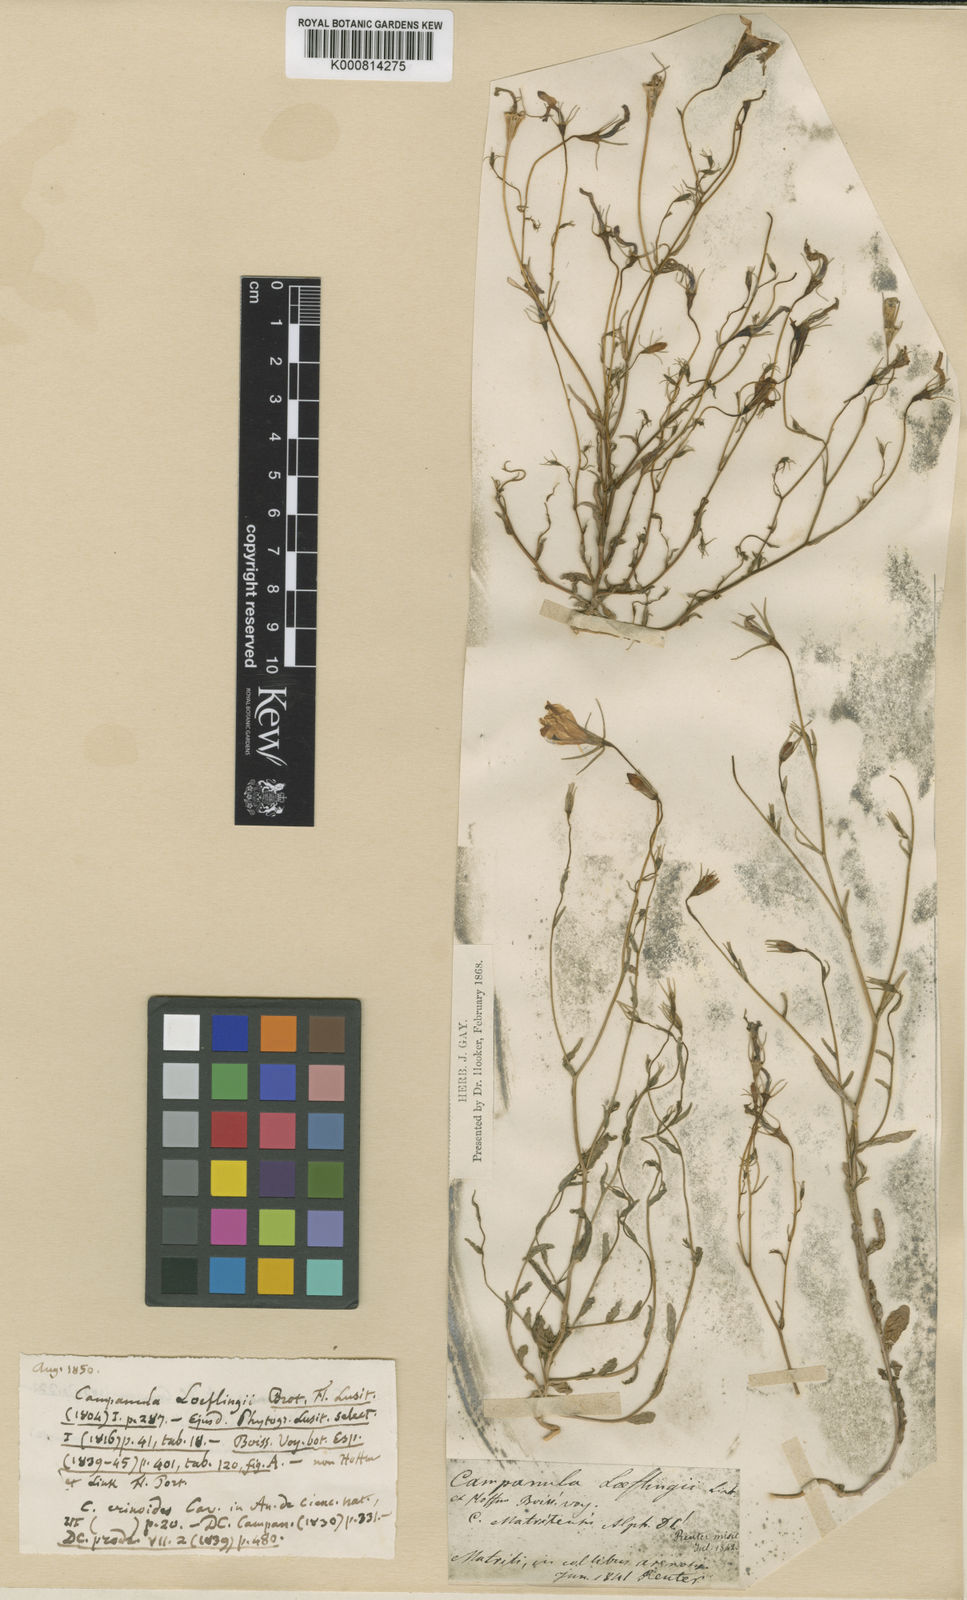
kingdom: Plantae
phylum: Tracheophyta
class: Magnoliopsida
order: Asterales
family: Campanulaceae
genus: Campanula
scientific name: Campanula luristanica
